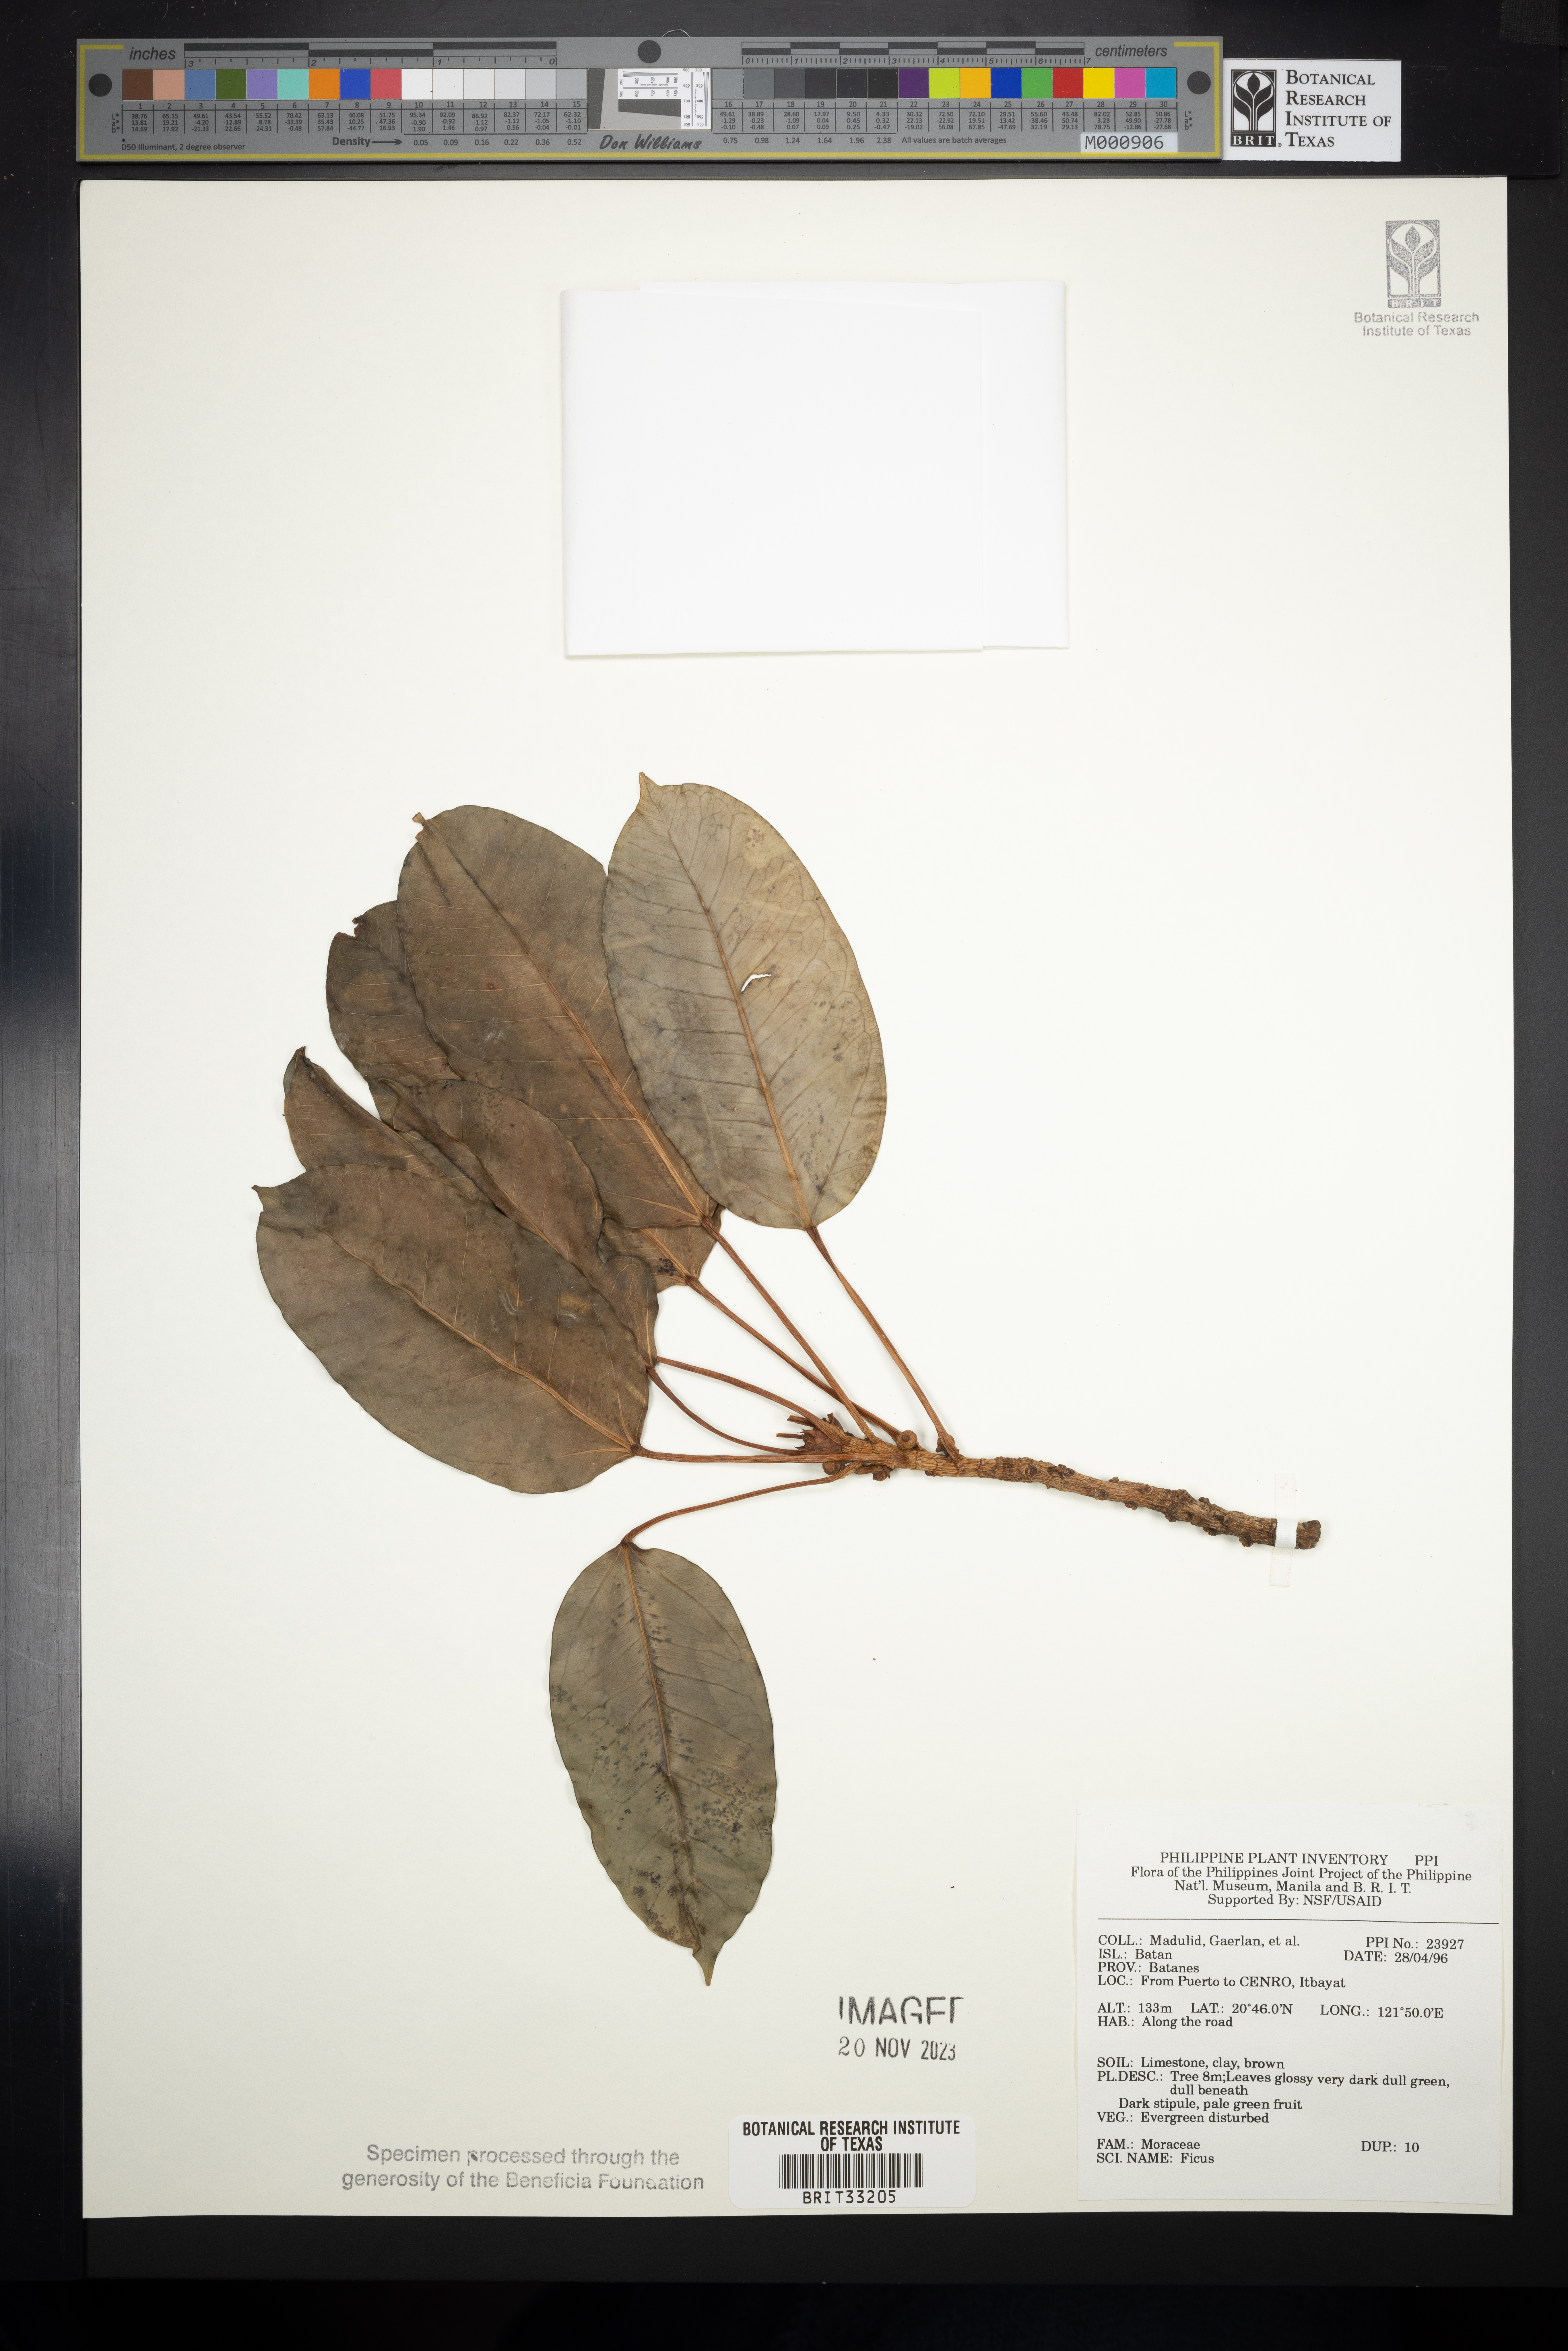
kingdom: Plantae
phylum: Tracheophyta
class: Magnoliopsida
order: Rosales
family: Moraceae
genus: Ficus
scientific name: Ficus
